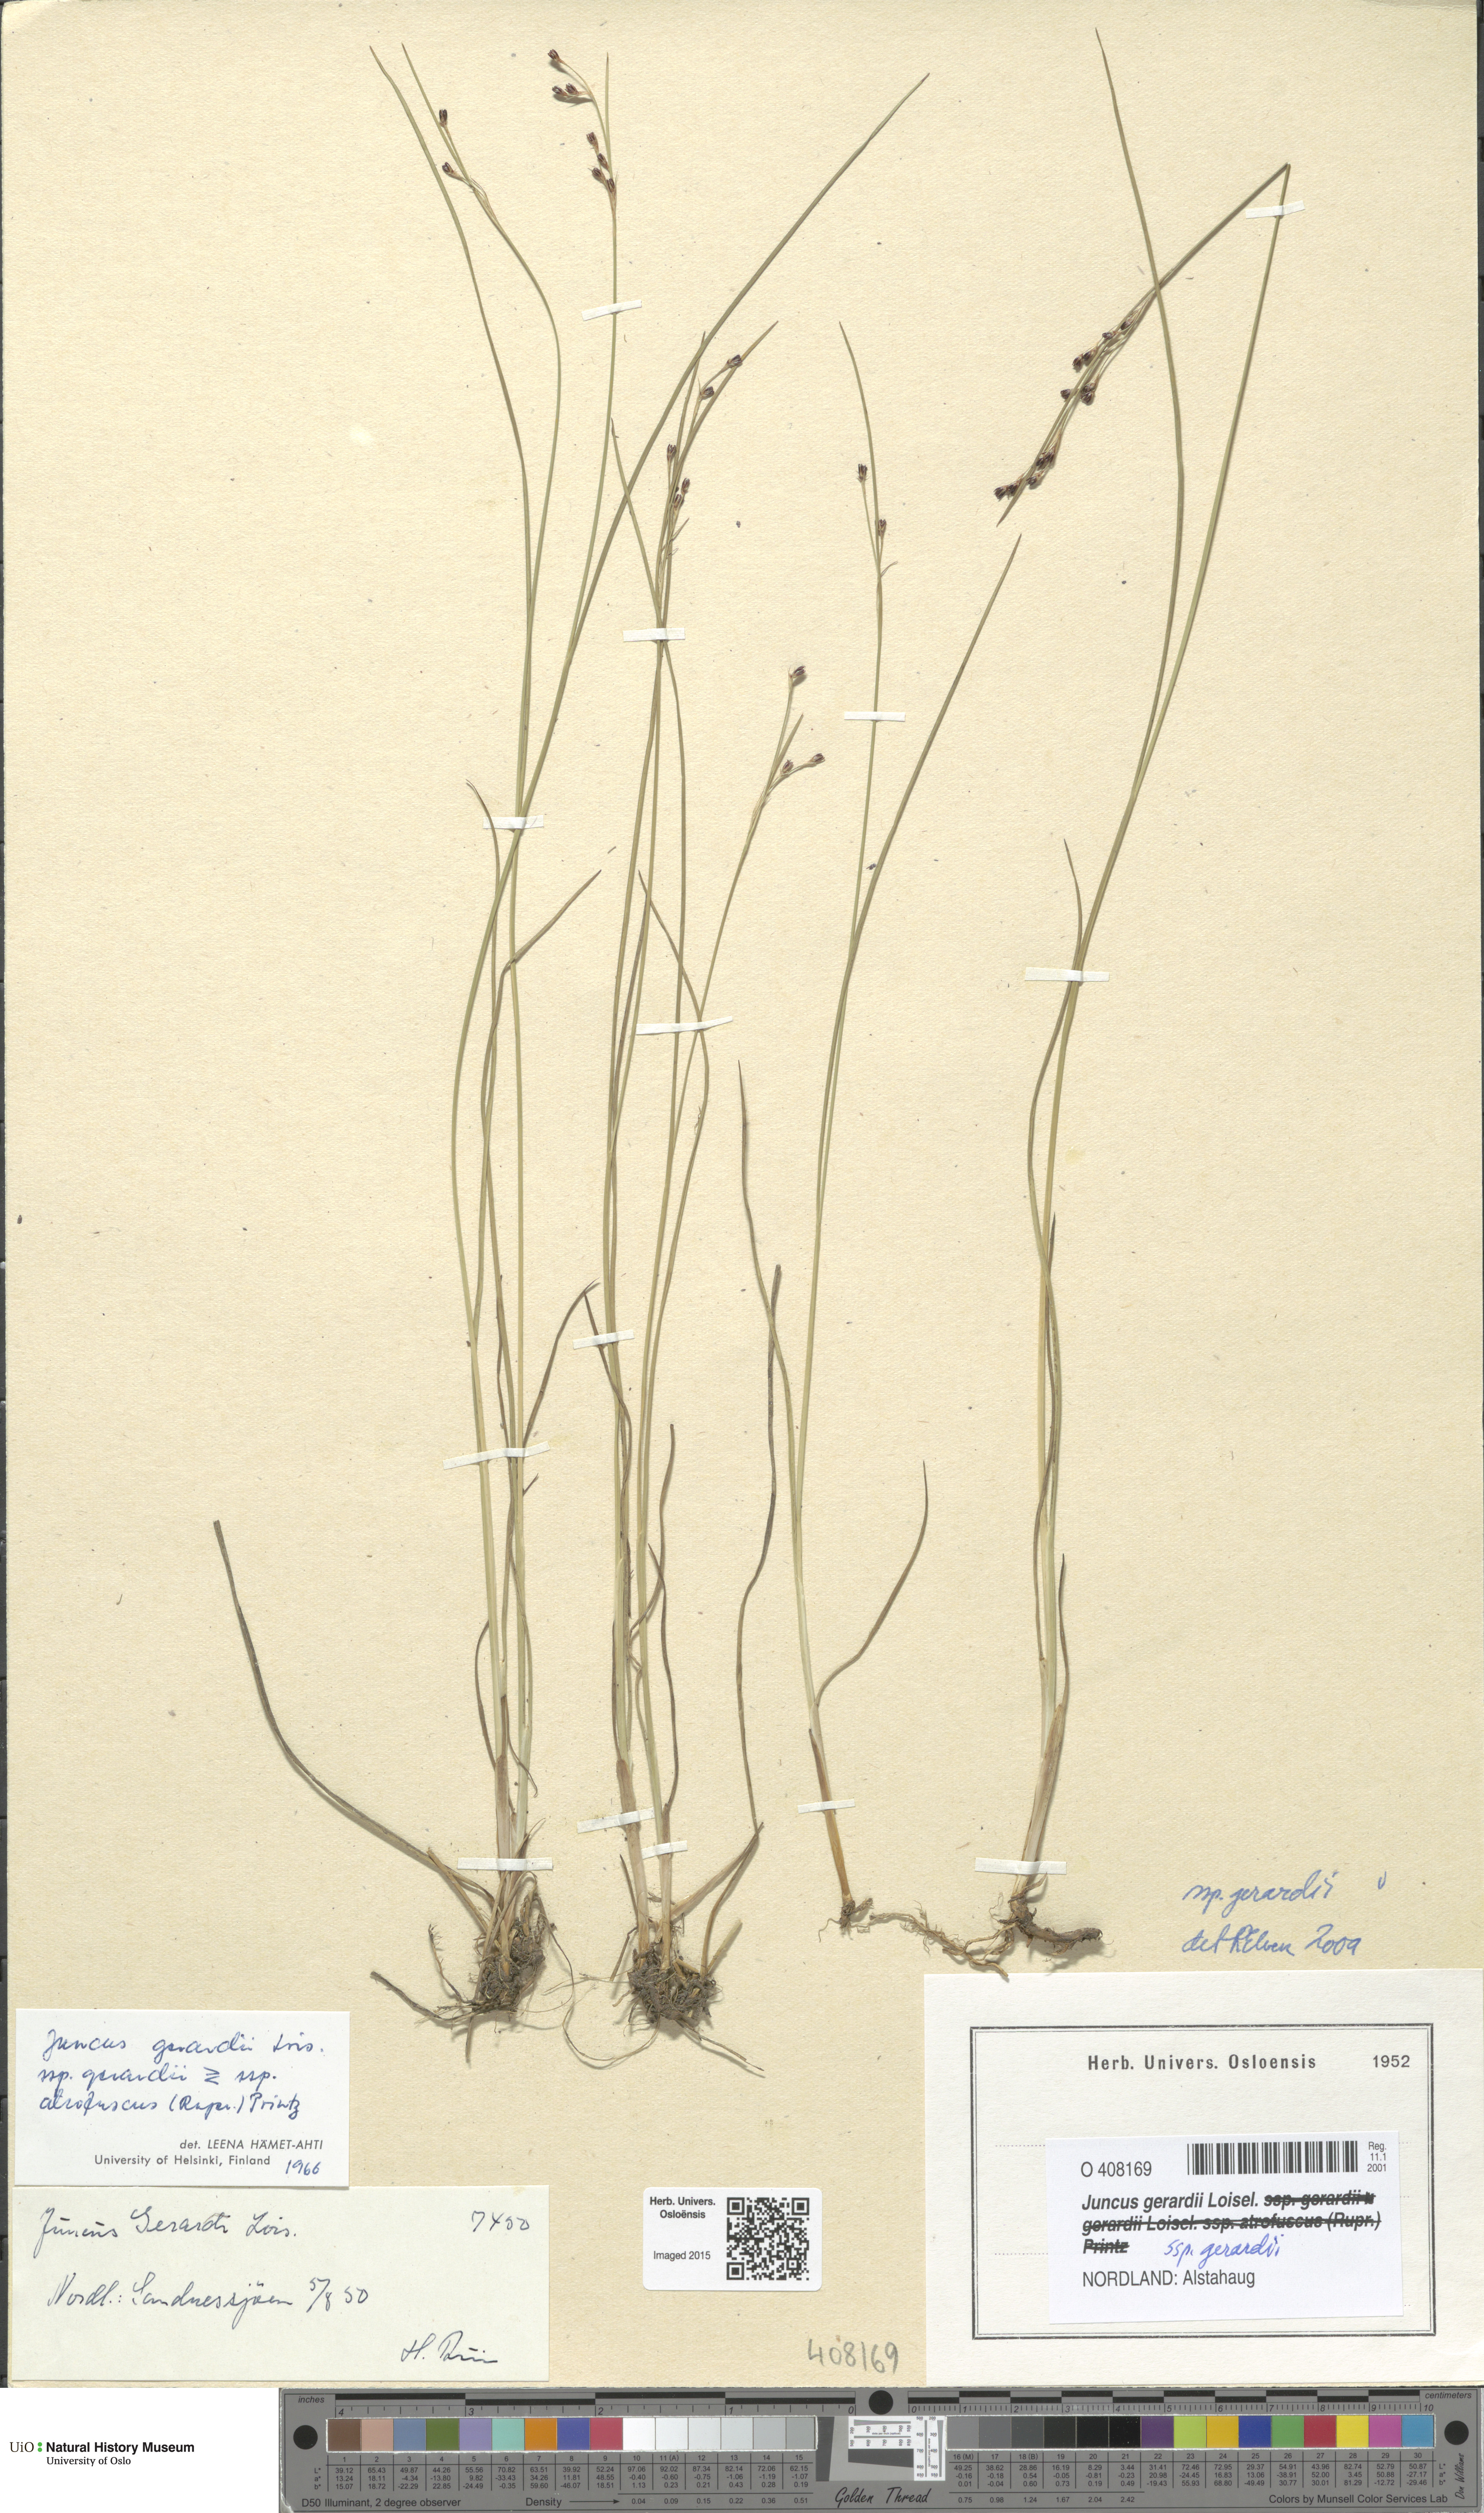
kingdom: Plantae
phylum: Tracheophyta
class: Liliopsida
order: Poales
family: Juncaceae
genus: Juncus
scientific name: Juncus gerardi
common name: Saltmarsh rush
